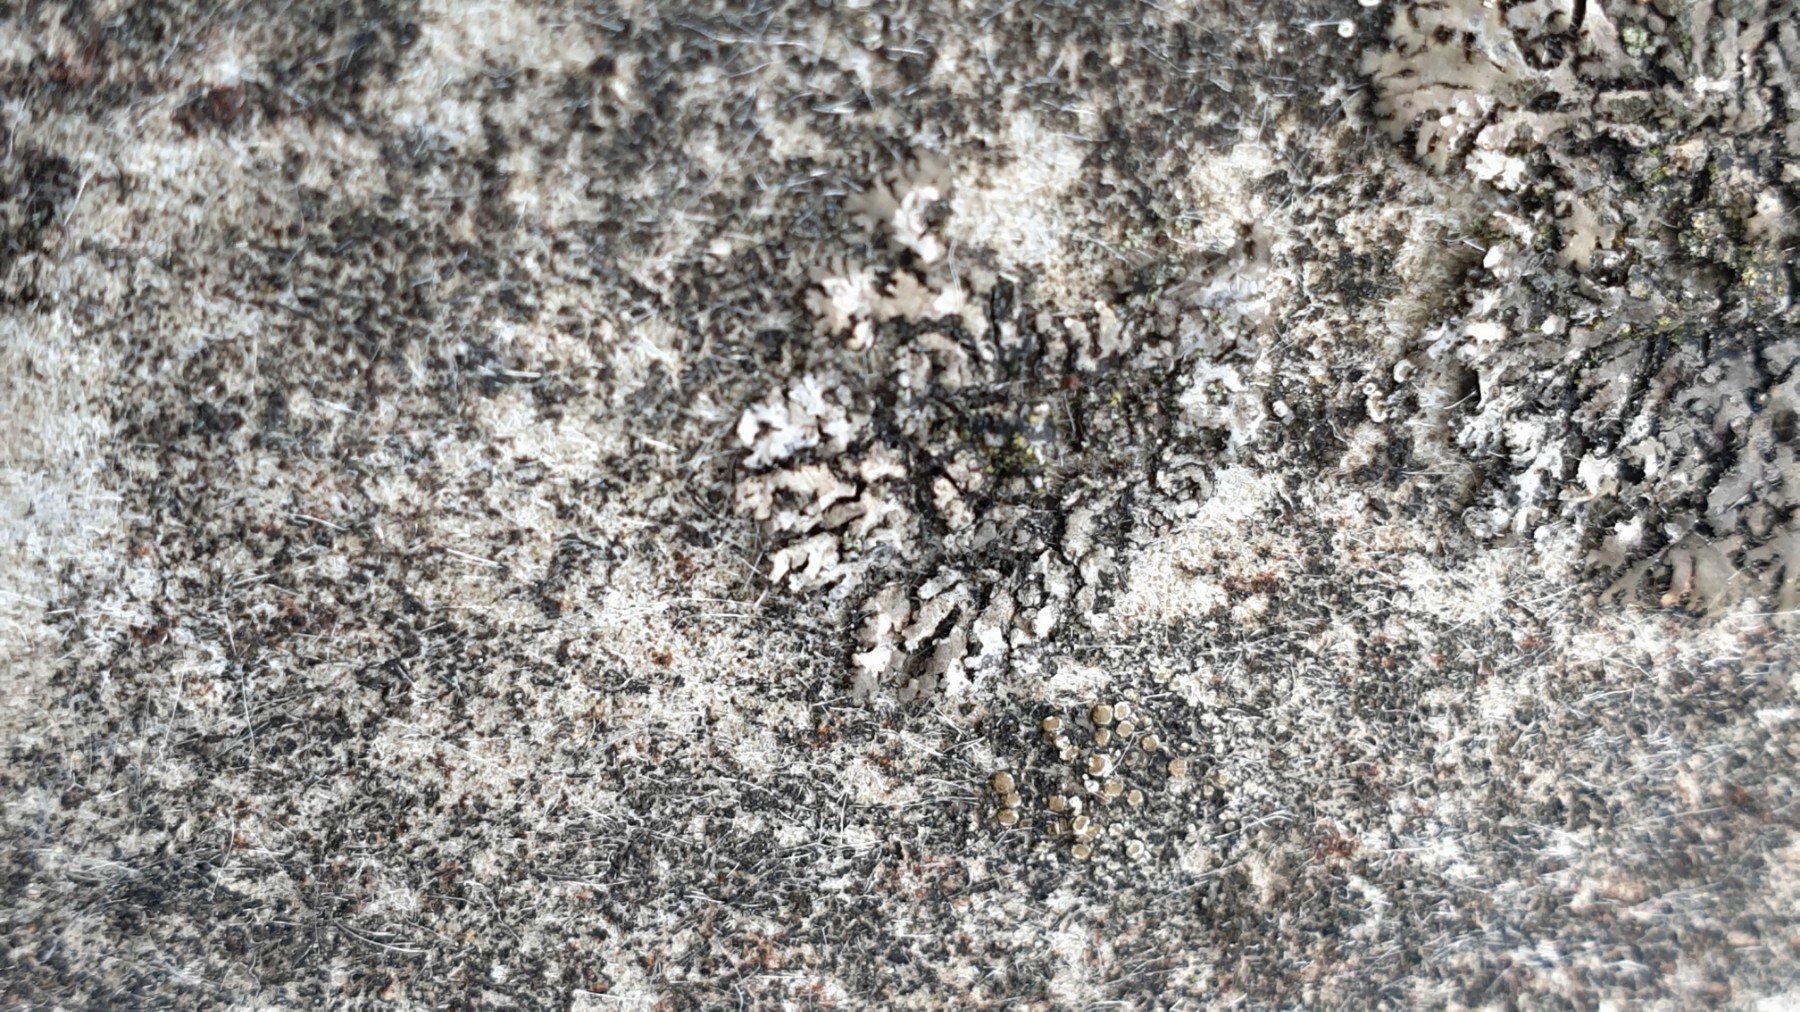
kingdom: Fungi
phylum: Ascomycota
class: Lecanoromycetes
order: Caliciales
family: Physciaceae
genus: Phaeophyscia
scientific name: Phaeophyscia orbicularis
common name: grågrøn rosetlav
